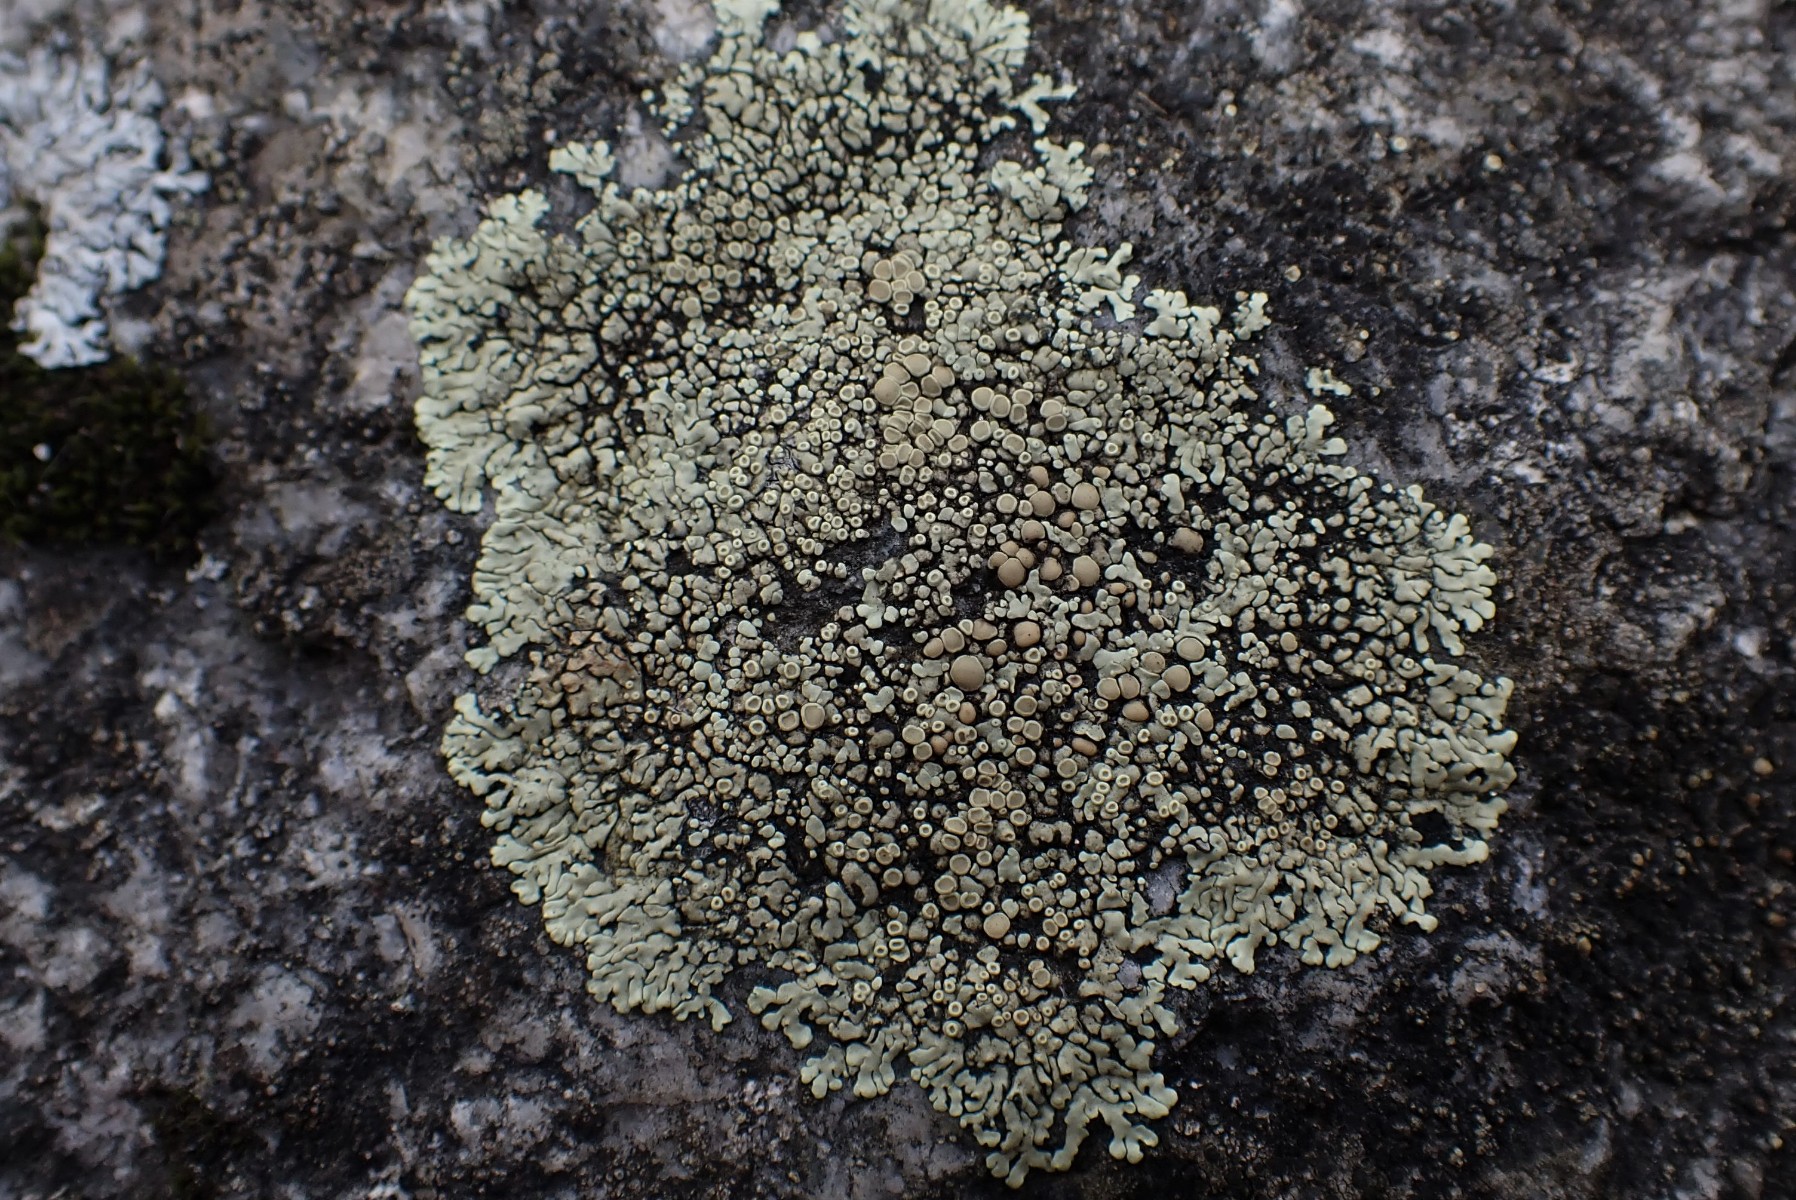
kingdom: Fungi
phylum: Ascomycota
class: Lecanoromycetes
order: Lecanorales
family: Lecanoraceae
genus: Protoparmeliopsis
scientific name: Protoparmeliopsis muralis
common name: randfliget kantskivelav
